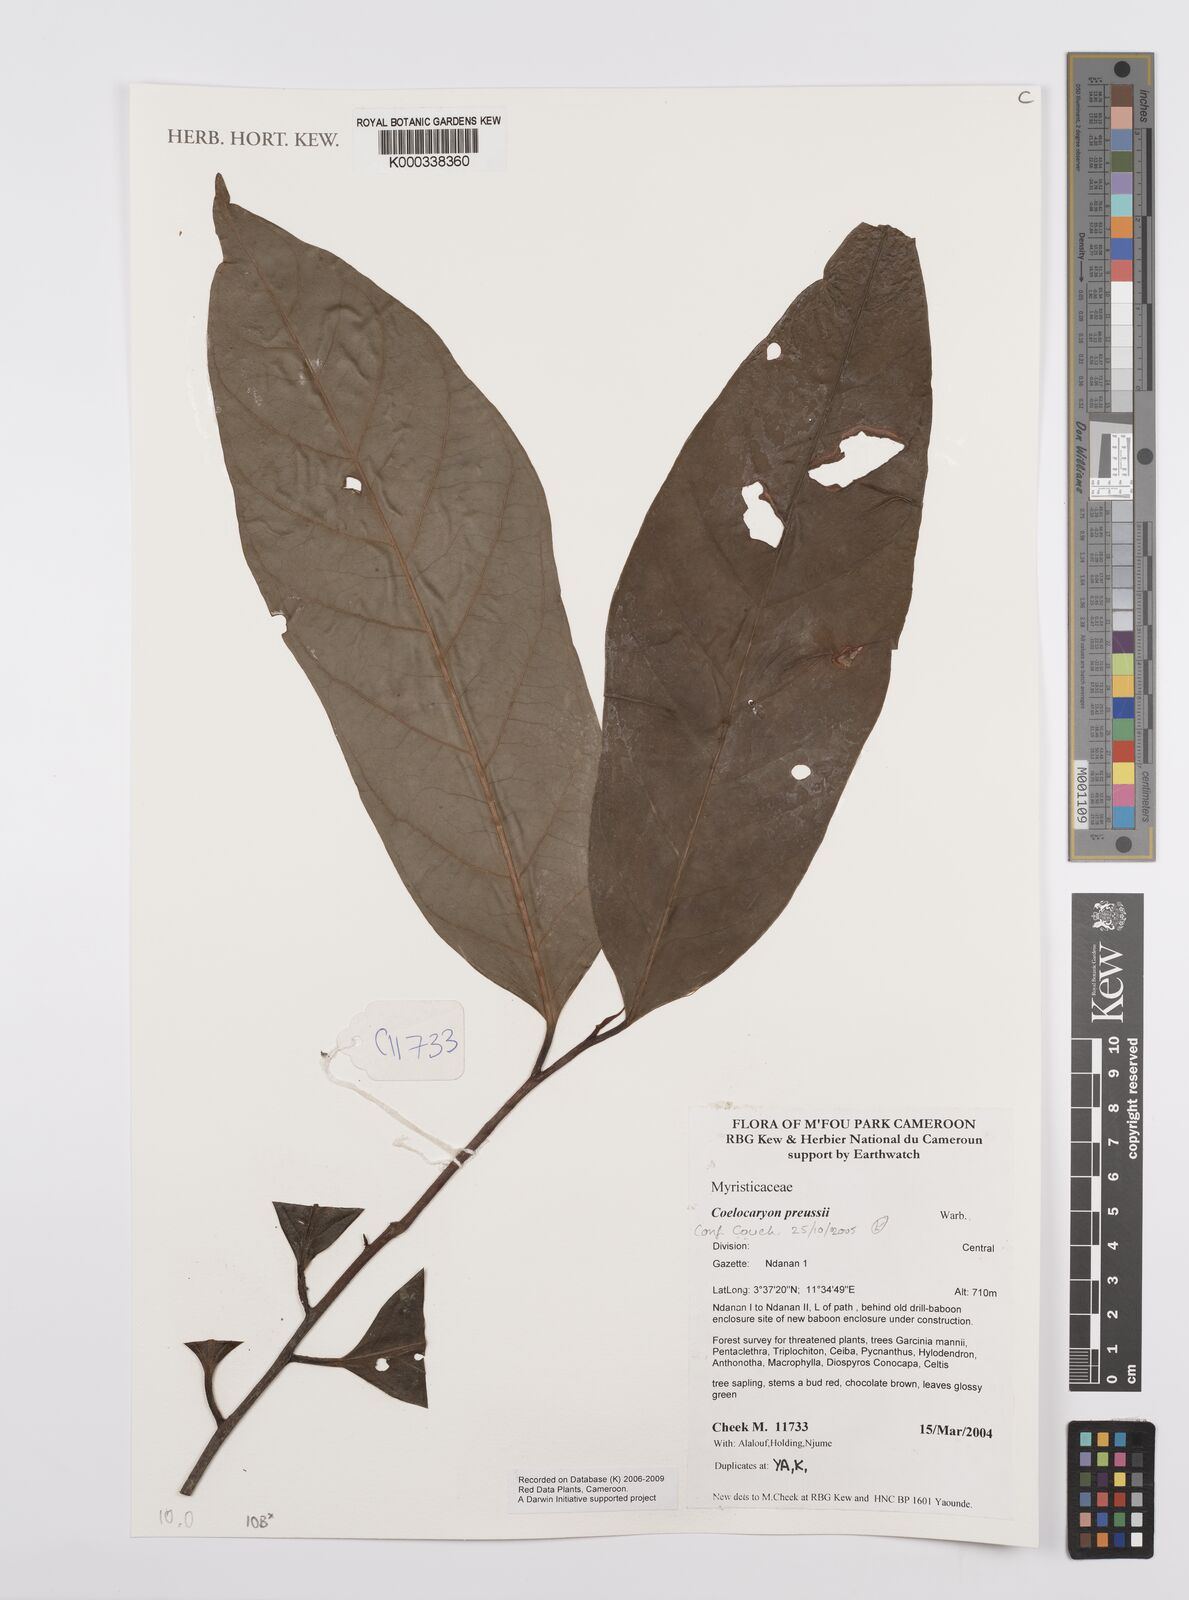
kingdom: Plantae
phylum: Tracheophyta
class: Magnoliopsida
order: Magnoliales
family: Myristicaceae
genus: Coelocaryon
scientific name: Coelocaryon preussii
